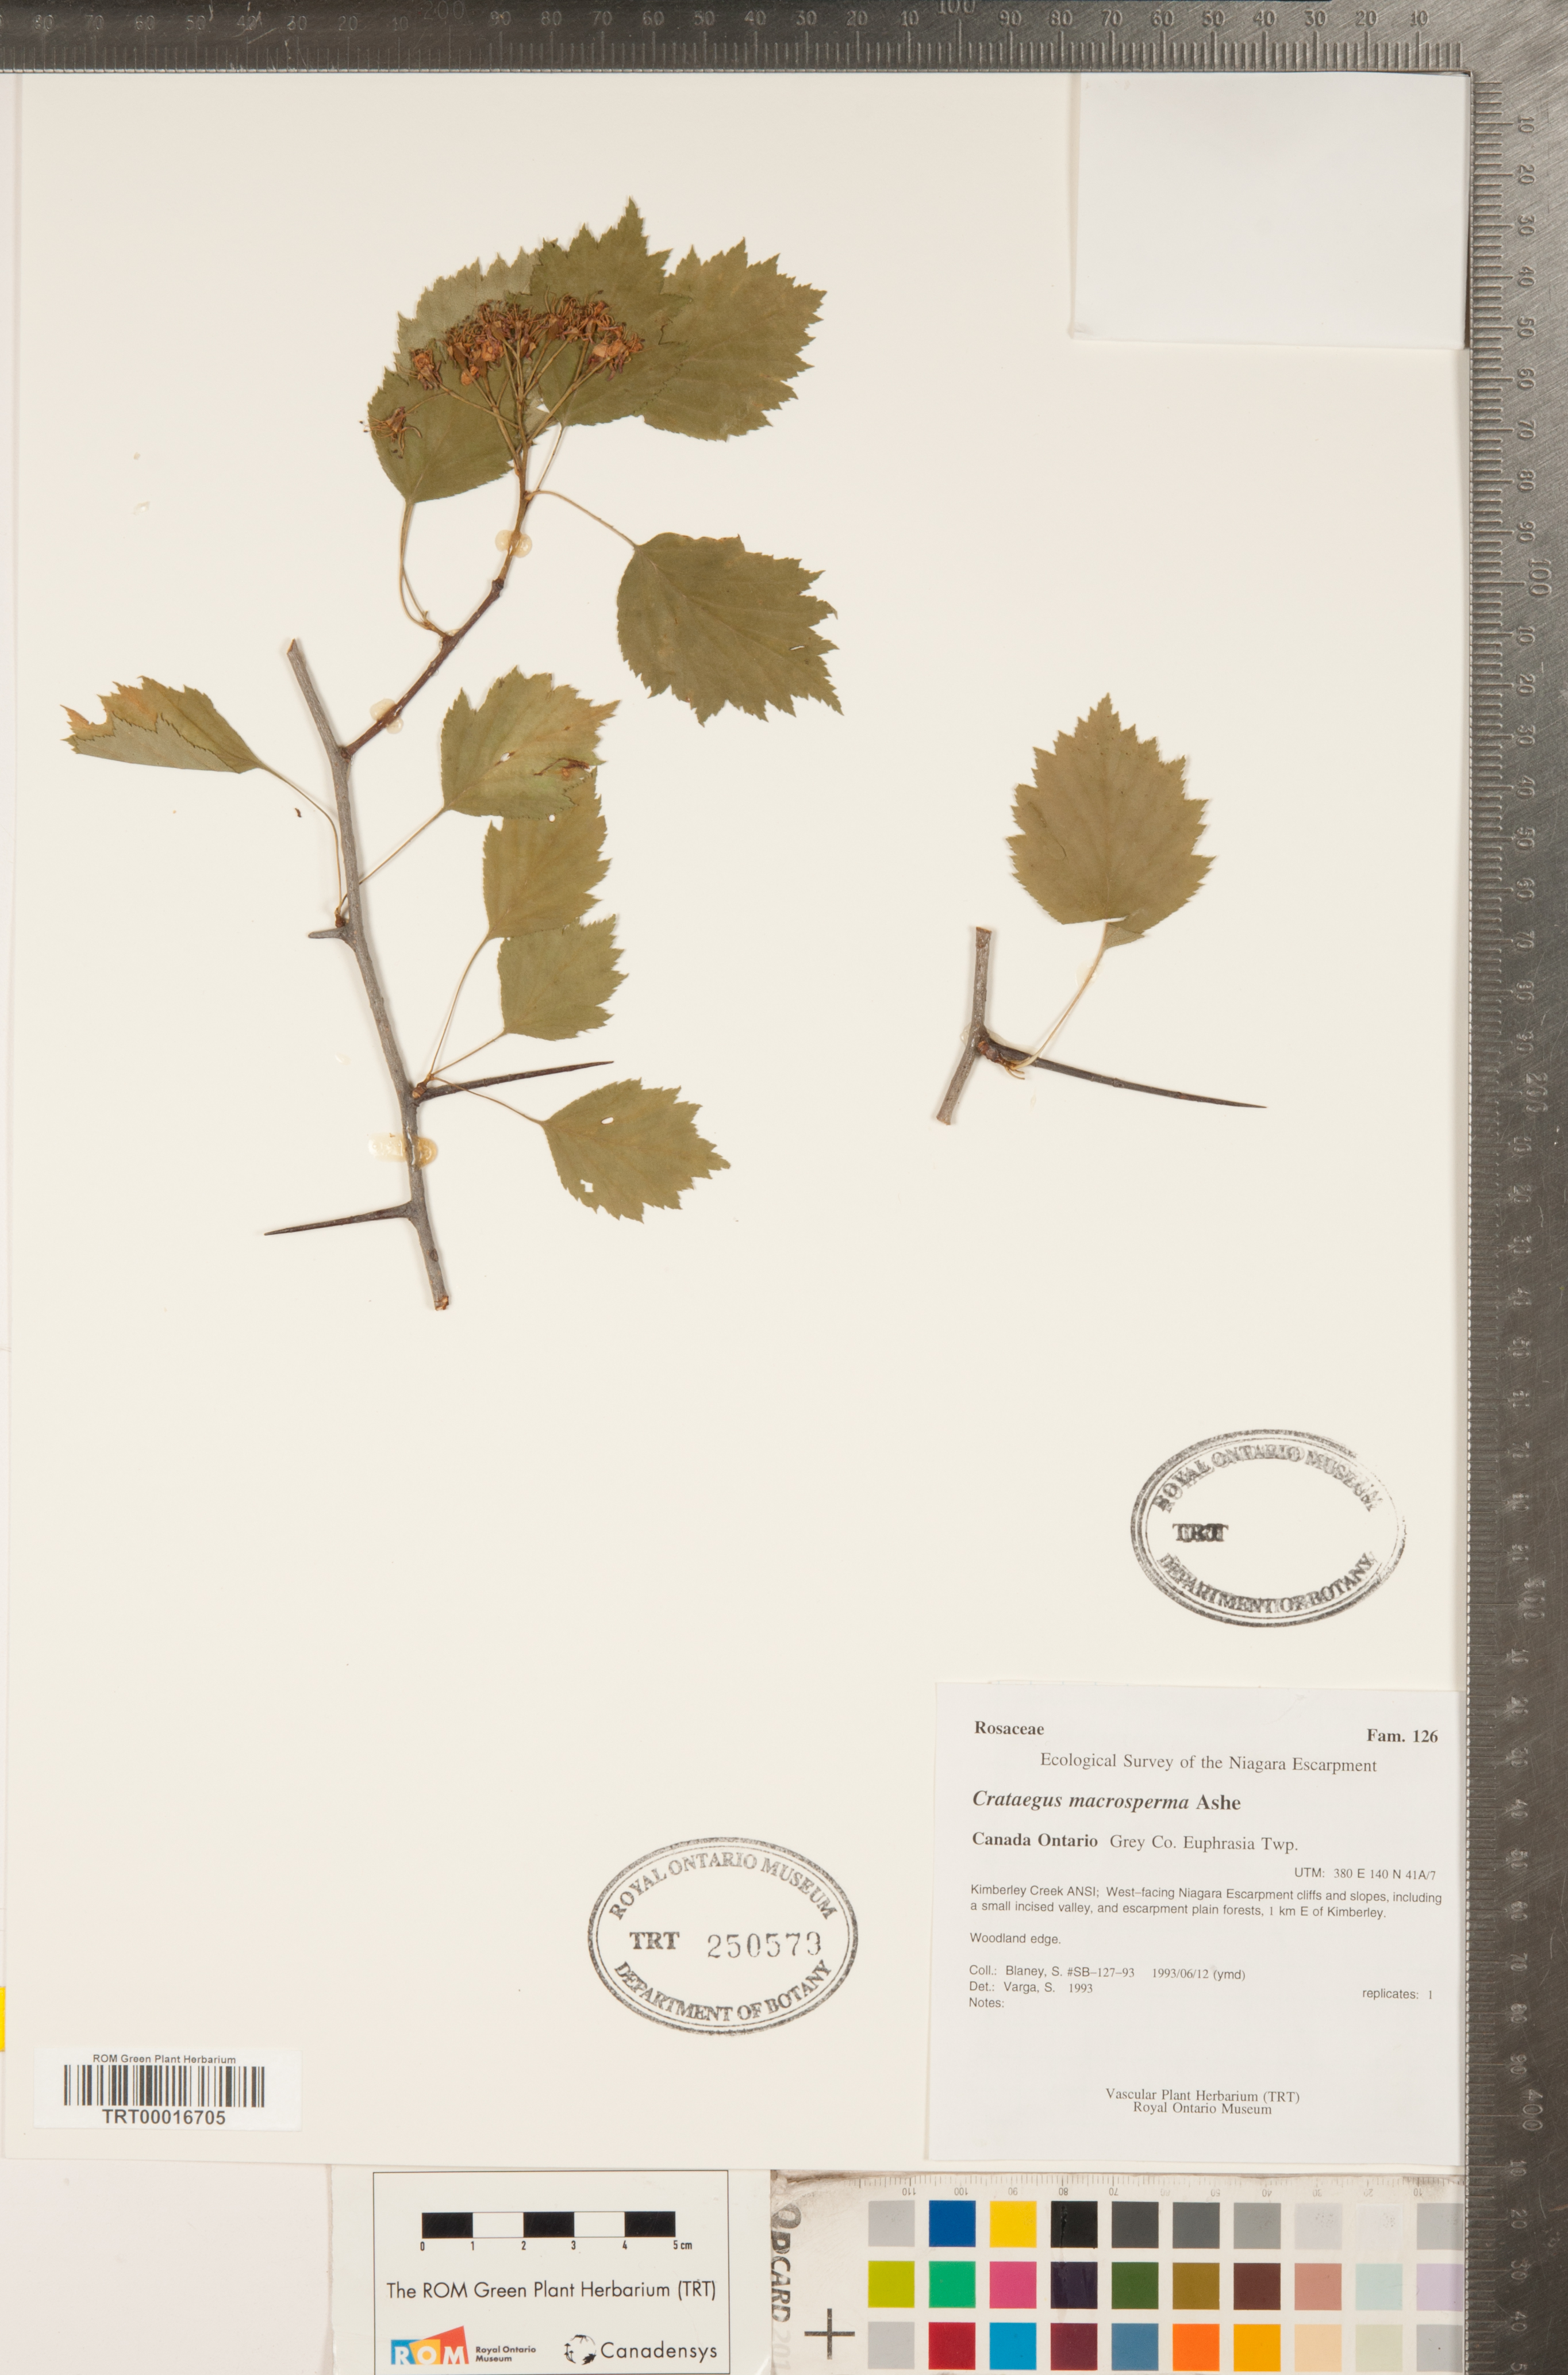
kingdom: Plantae
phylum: Tracheophyta
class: Magnoliopsida
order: Rosales
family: Rosaceae
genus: Crataegus
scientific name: Crataegus macrosperma
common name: Variable hawthorn
